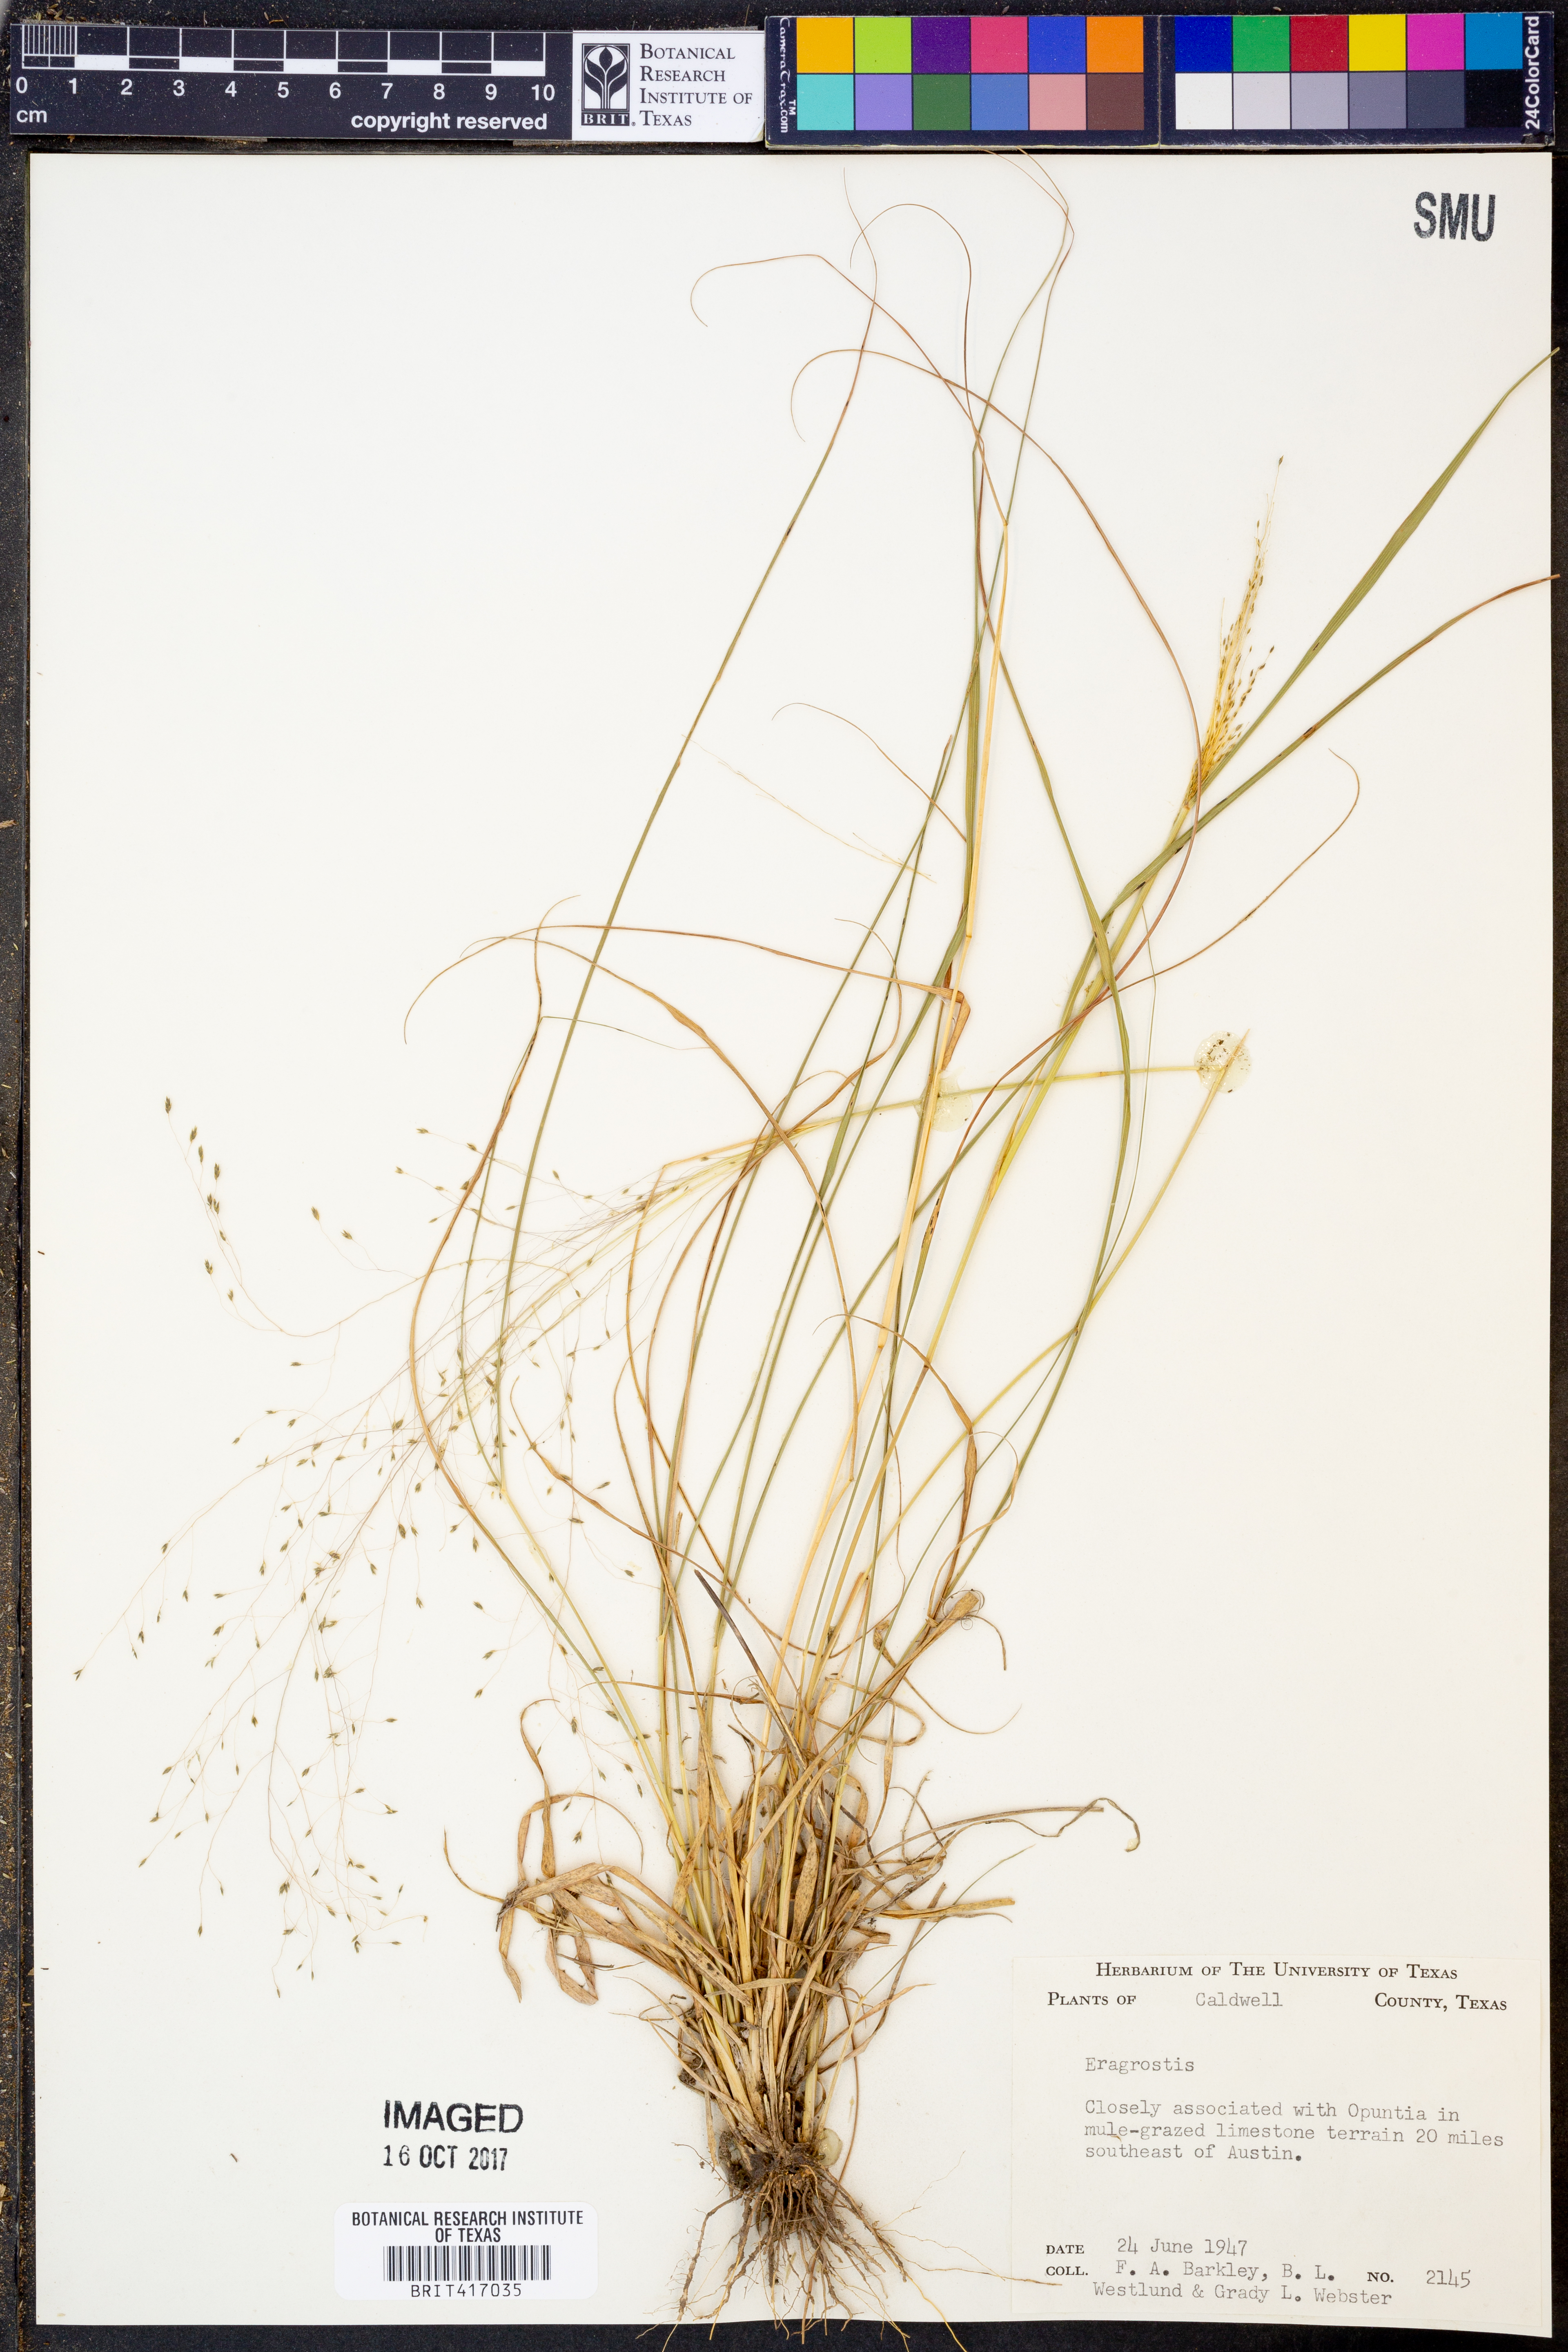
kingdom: Plantae
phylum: Tracheophyta
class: Liliopsida
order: Poales
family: Poaceae
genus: Eragrostis
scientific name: Eragrostis
